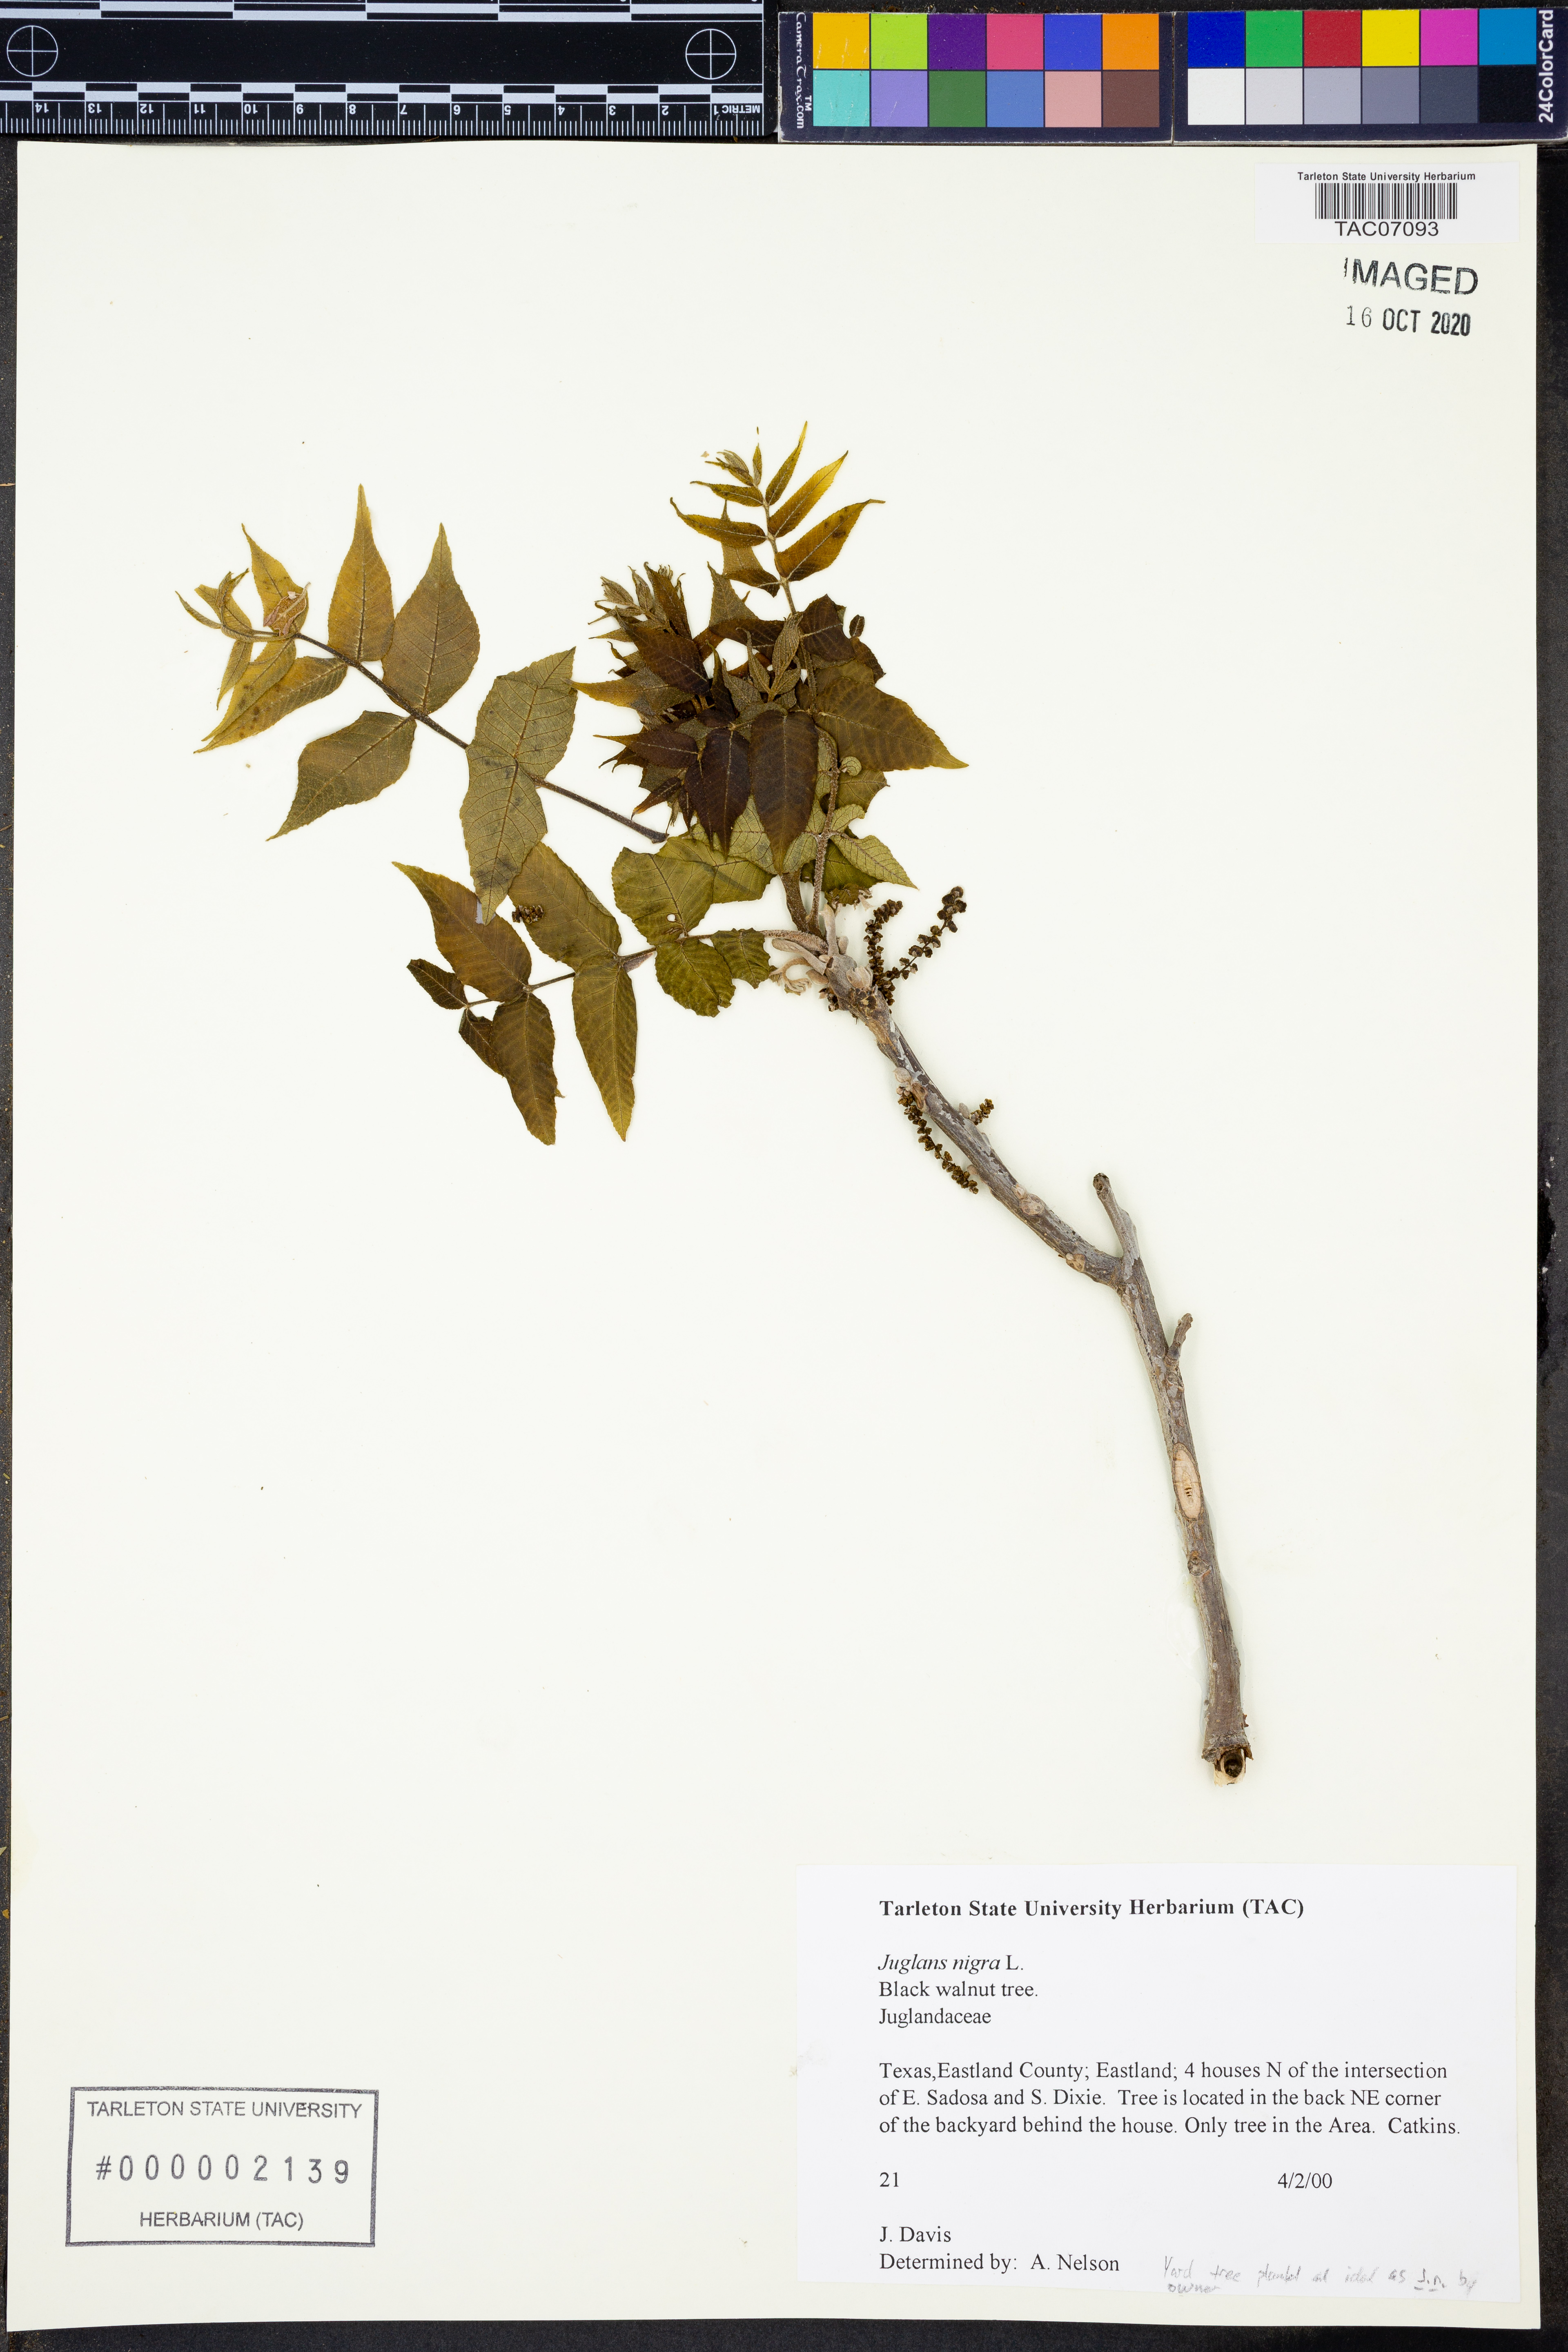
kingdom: Plantae
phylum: Tracheophyta
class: Magnoliopsida
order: Fagales
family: Juglandaceae
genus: Juglans
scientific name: Juglans nigra
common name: Black walnut
